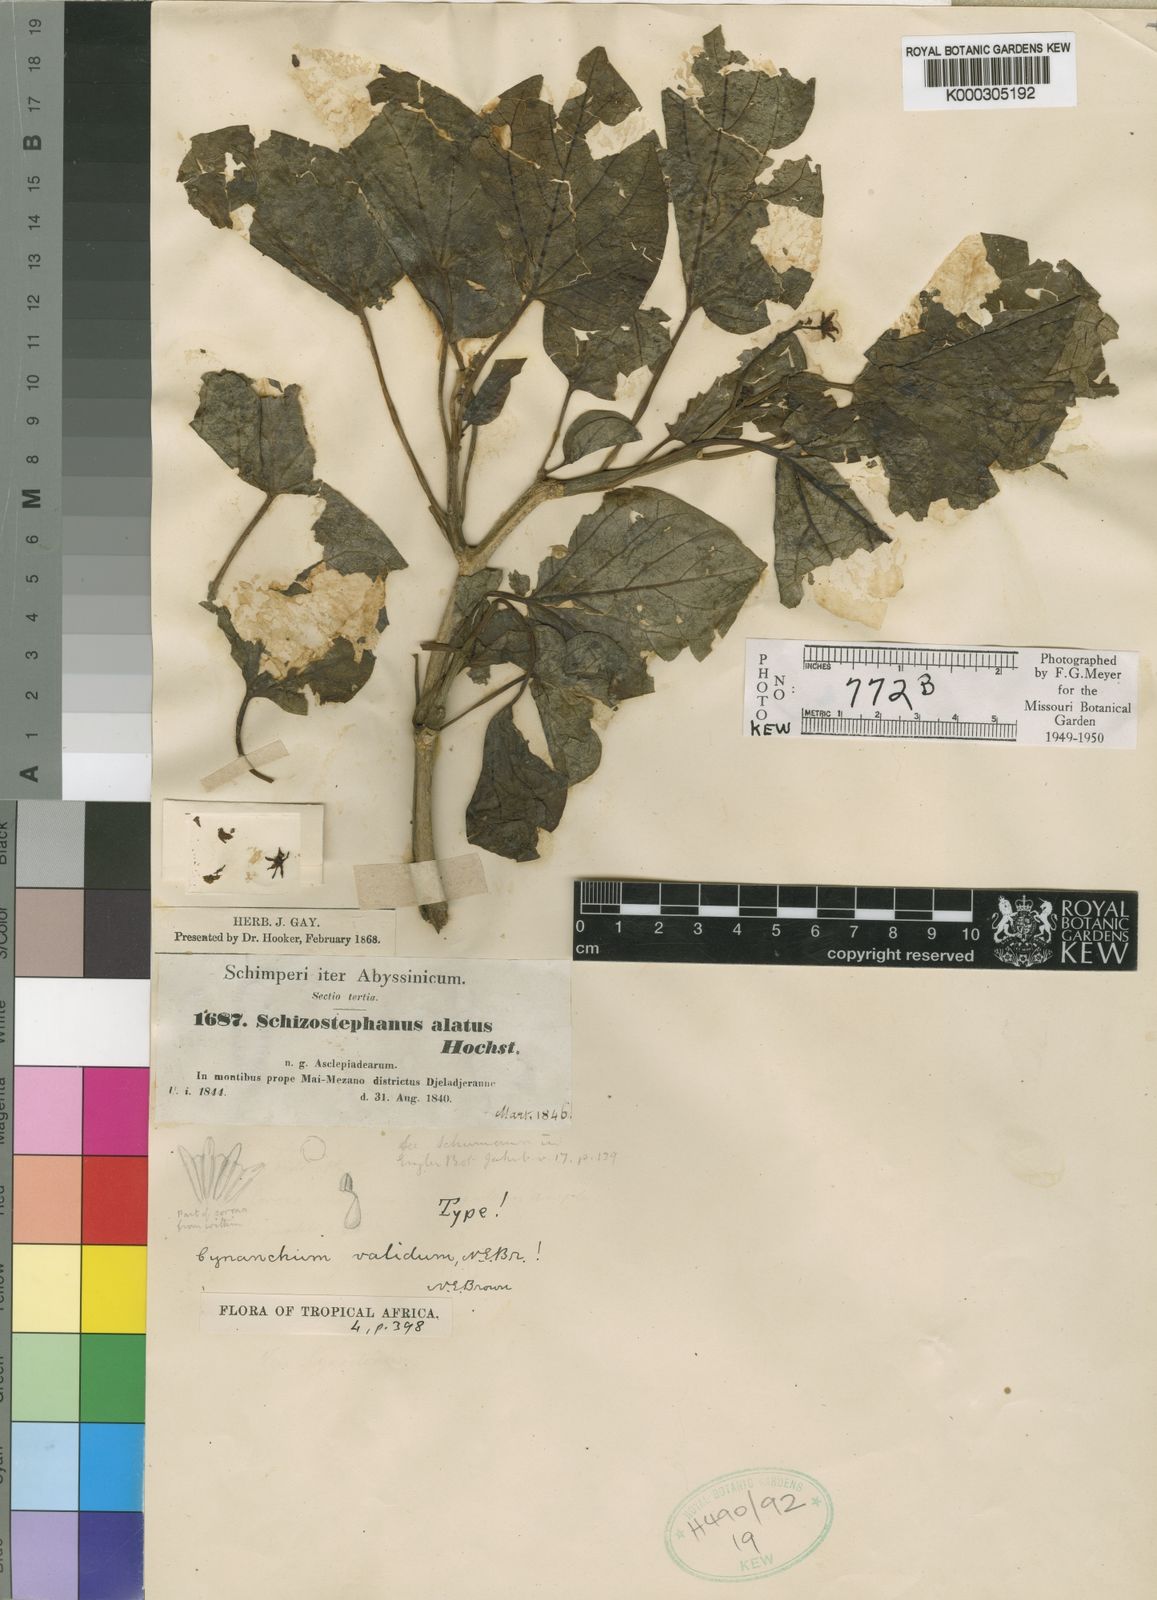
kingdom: Plantae
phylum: Tracheophyta
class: Magnoliopsida
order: Gentianales
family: Apocynaceae
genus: Cynanchum
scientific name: Cynanchum validum
